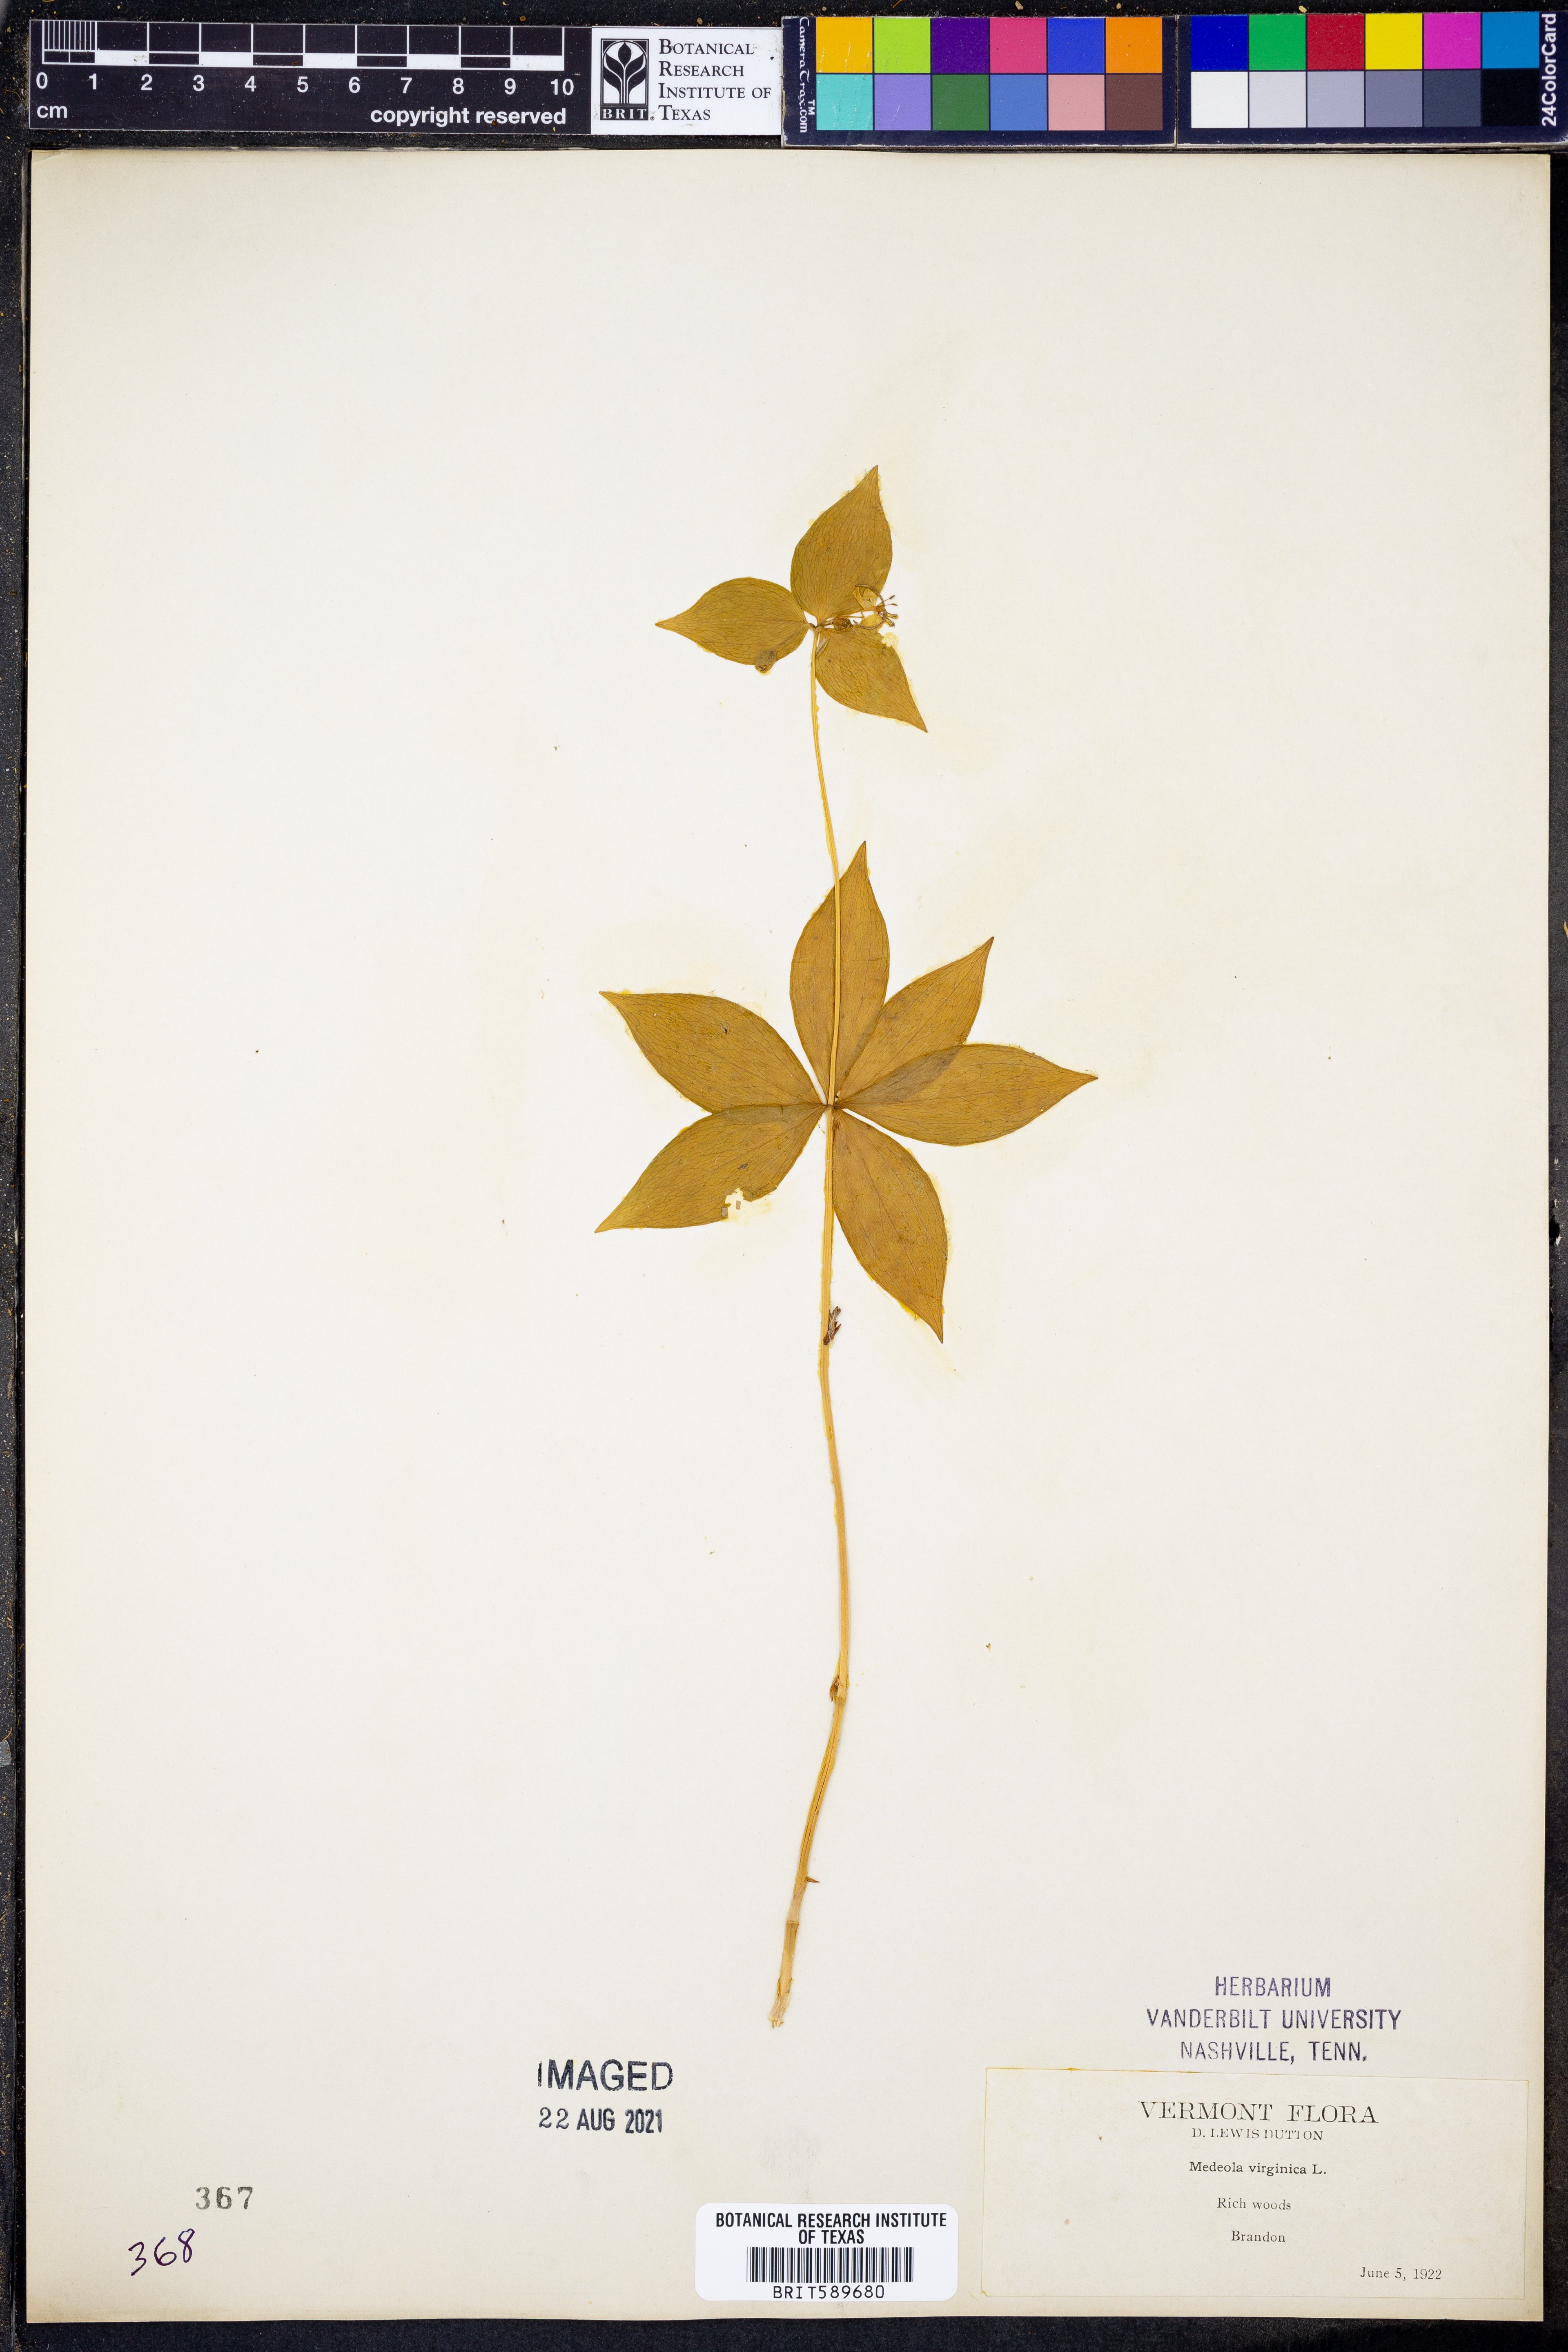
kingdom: Plantae
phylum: Tracheophyta
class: Liliopsida
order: Liliales
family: Liliaceae
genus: Medeola
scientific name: Medeola virginiana
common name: Indian cucumber-root
